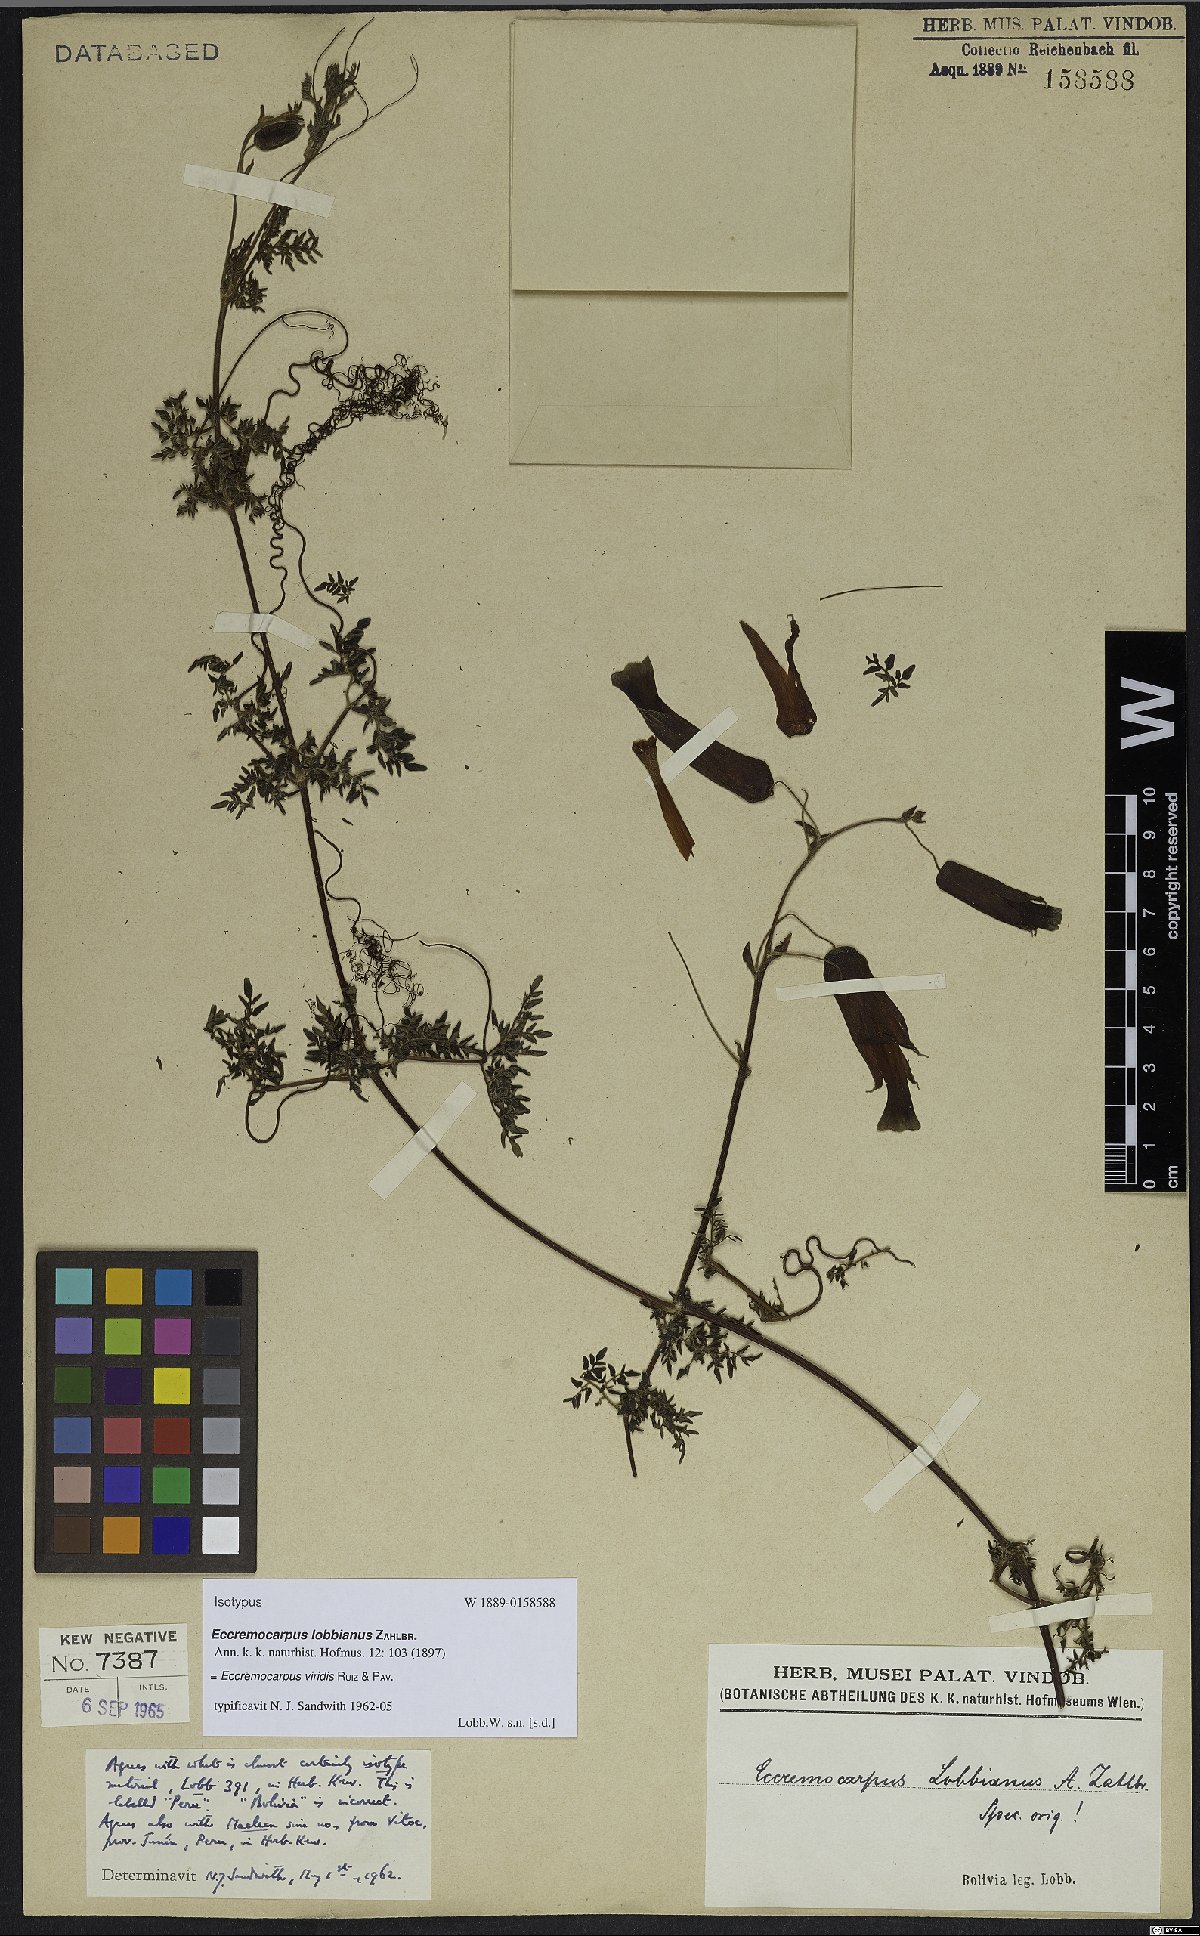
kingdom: Plantae
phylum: Tracheophyta
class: Magnoliopsida
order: Lamiales
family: Bignoniaceae
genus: Eccremocarpus
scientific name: Eccremocarpus viridis
